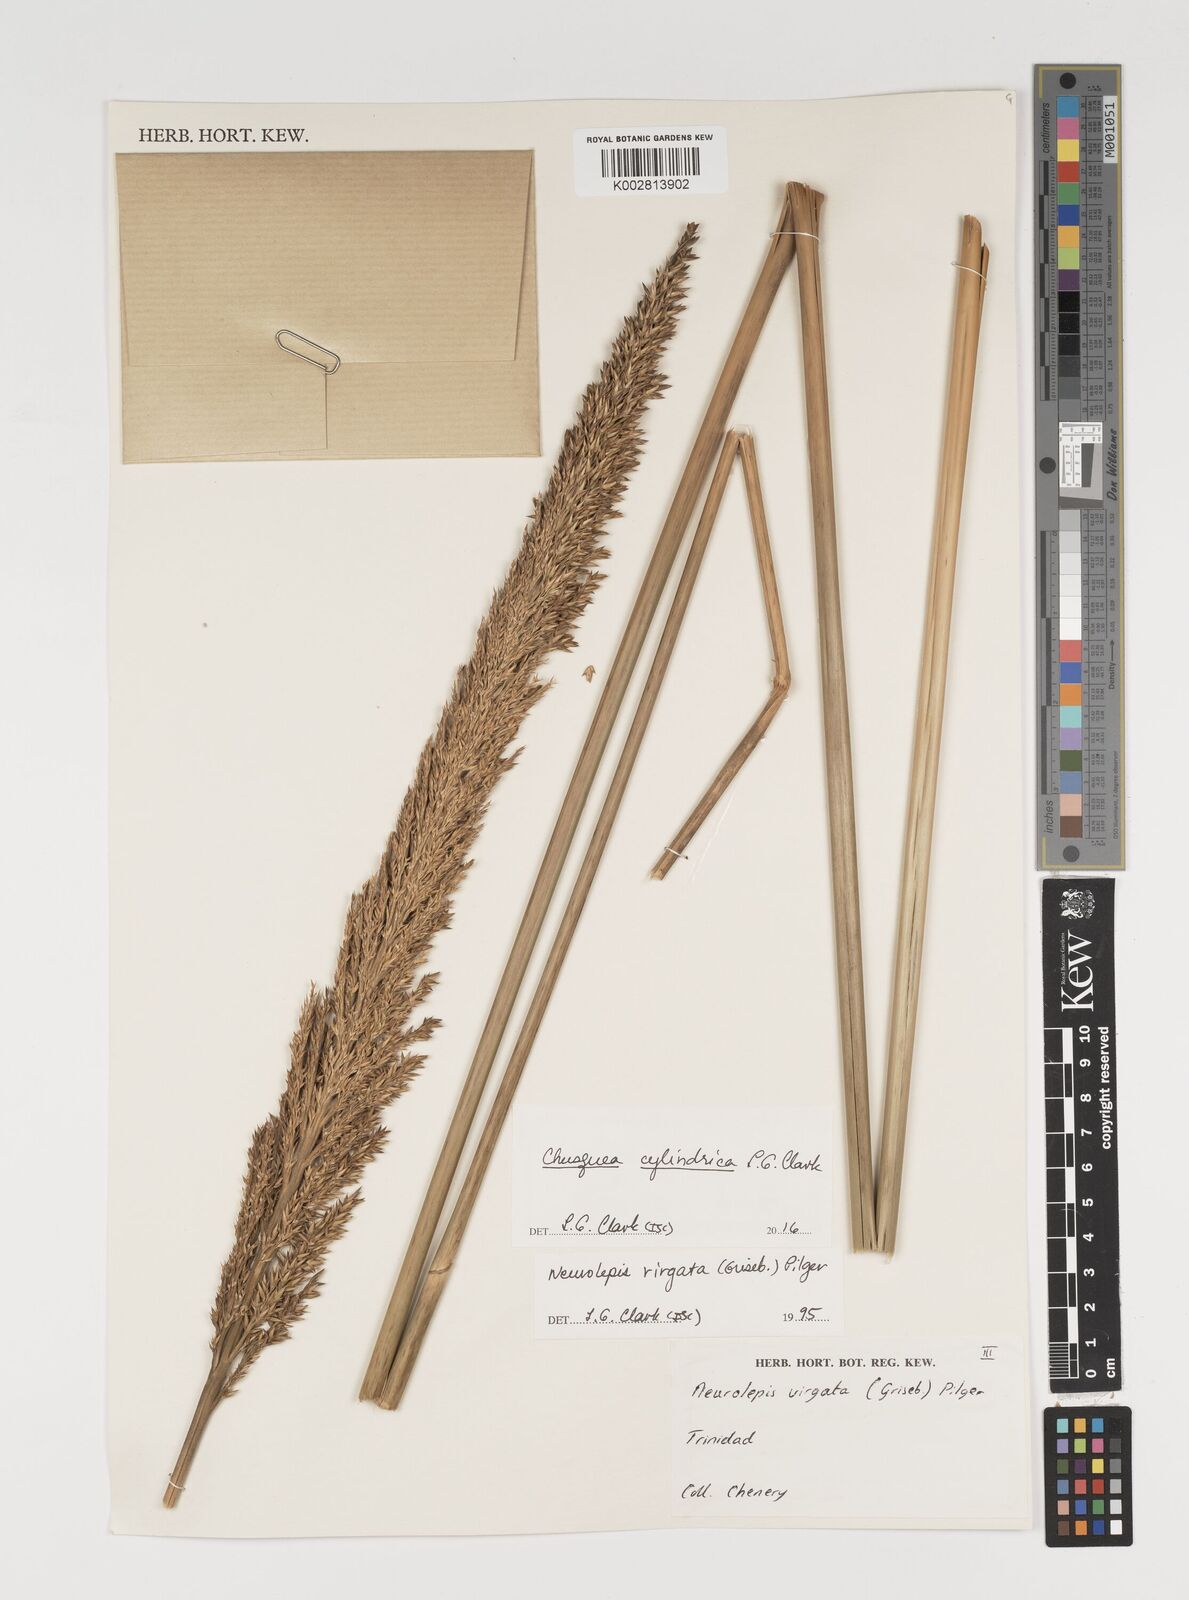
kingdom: Plantae
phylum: Tracheophyta
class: Liliopsida
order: Poales
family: Poaceae
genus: Chusquea
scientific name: Chusquea cylindrica
